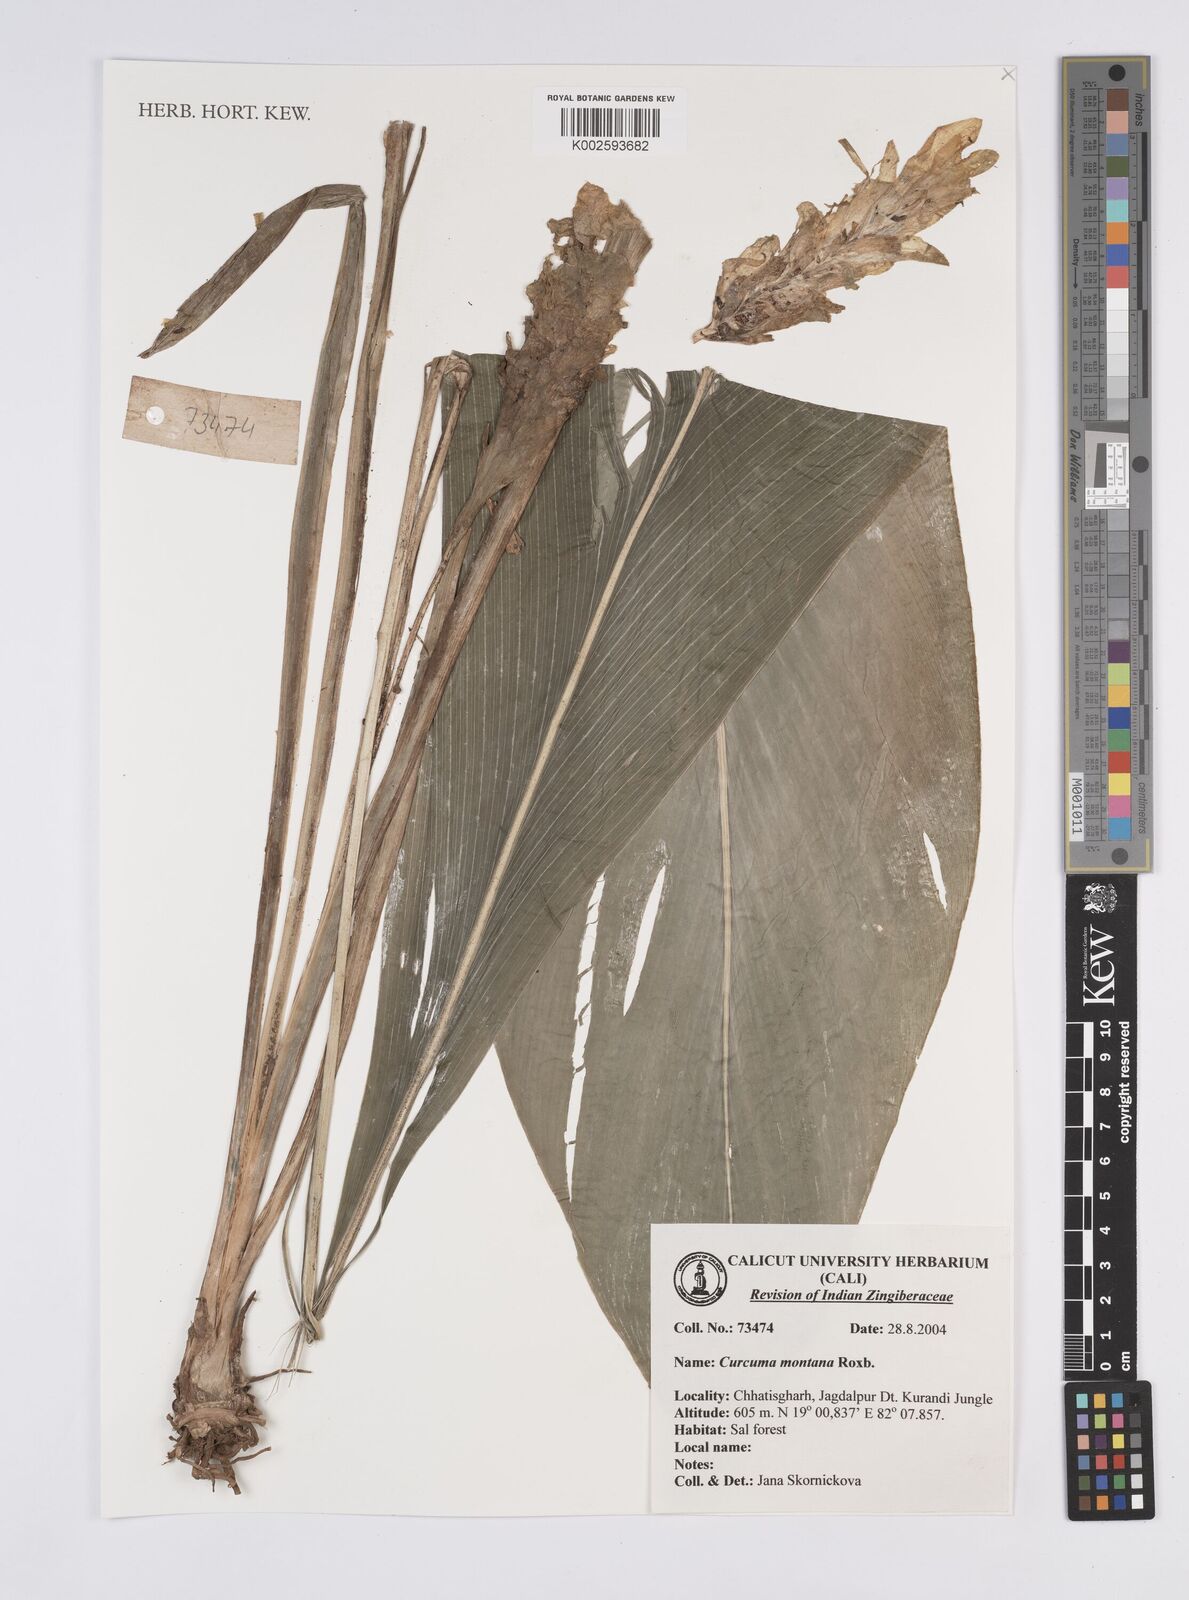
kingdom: Plantae
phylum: Tracheophyta
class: Liliopsida
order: Zingiberales
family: Zingiberaceae
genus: Curcuma
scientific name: Curcuma montana
